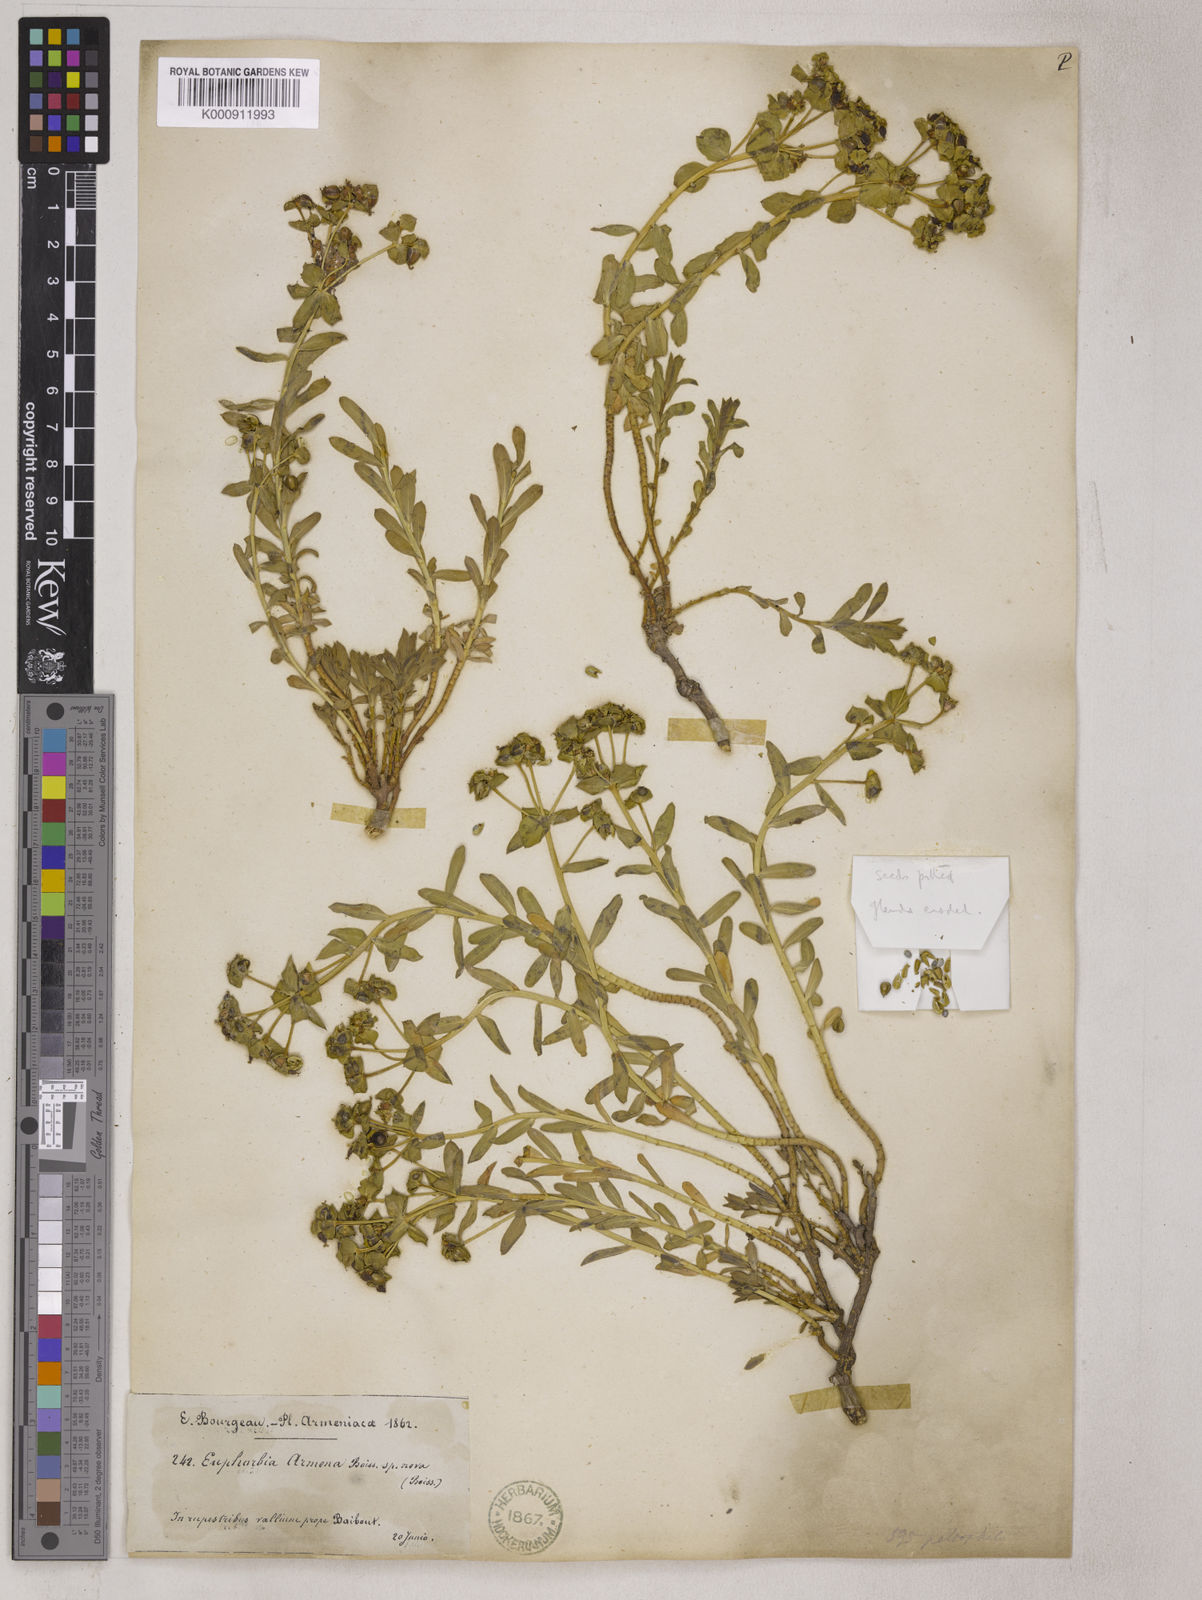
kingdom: Plantae
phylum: Tracheophyta
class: Magnoliopsida
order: Malpighiales
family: Euphorbiaceae
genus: Euphorbia
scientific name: Euphorbia petrophila
